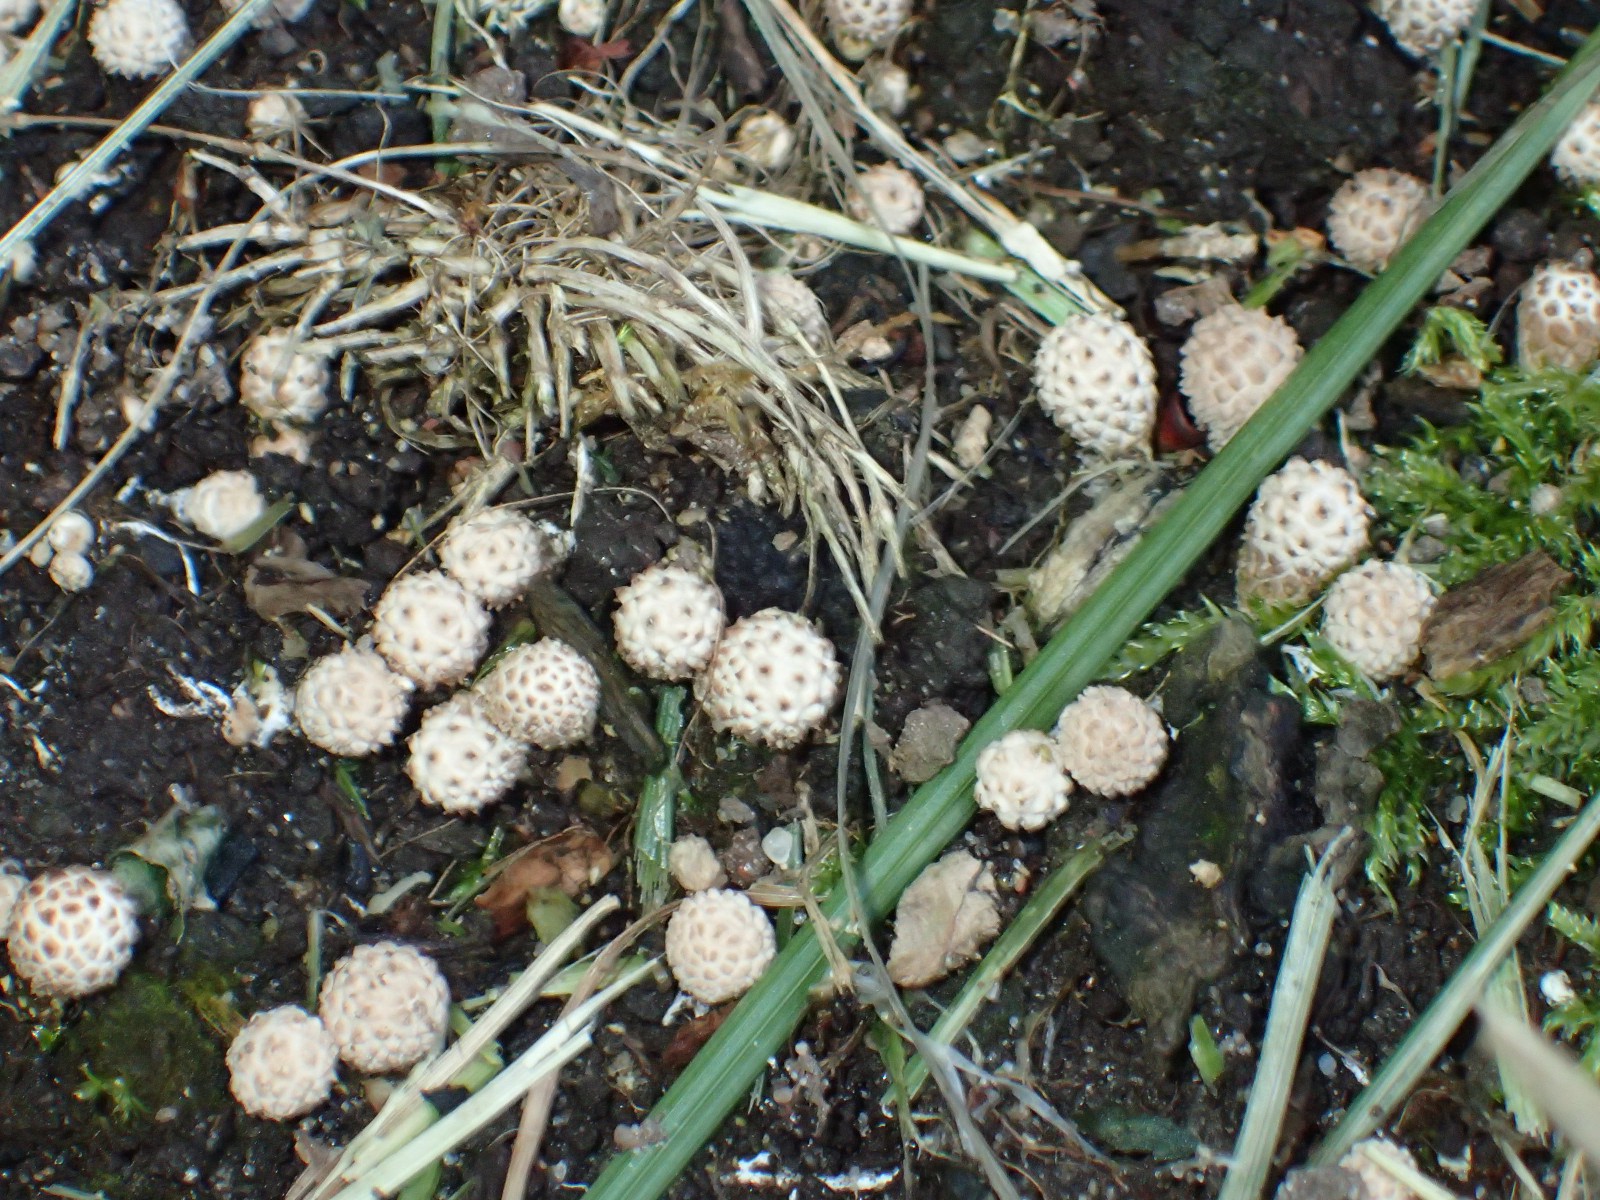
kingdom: Fungi
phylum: Basidiomycota
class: Agaricomycetes
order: Agaricales
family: Agaricaceae
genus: Lycoperdon
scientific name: Lycoperdon
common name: støvbold
